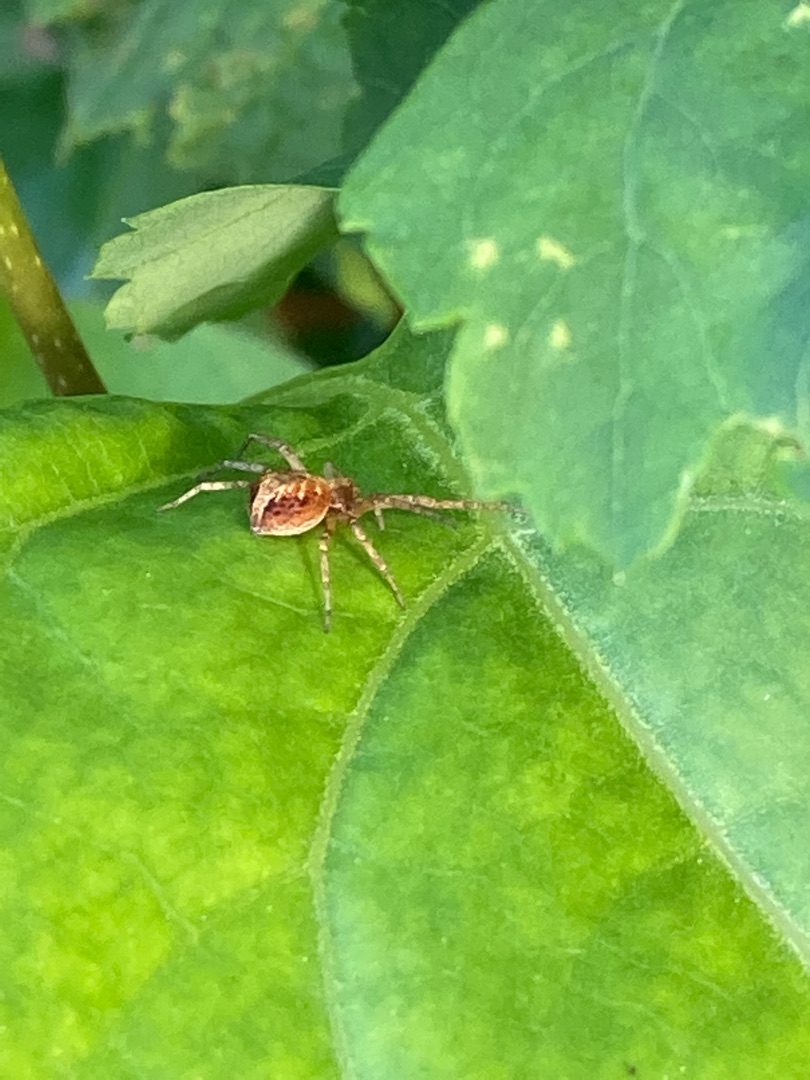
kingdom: Animalia
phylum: Arthropoda
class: Arachnida
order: Araneae
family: Philodromidae
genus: Philodromus
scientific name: Philodromus
